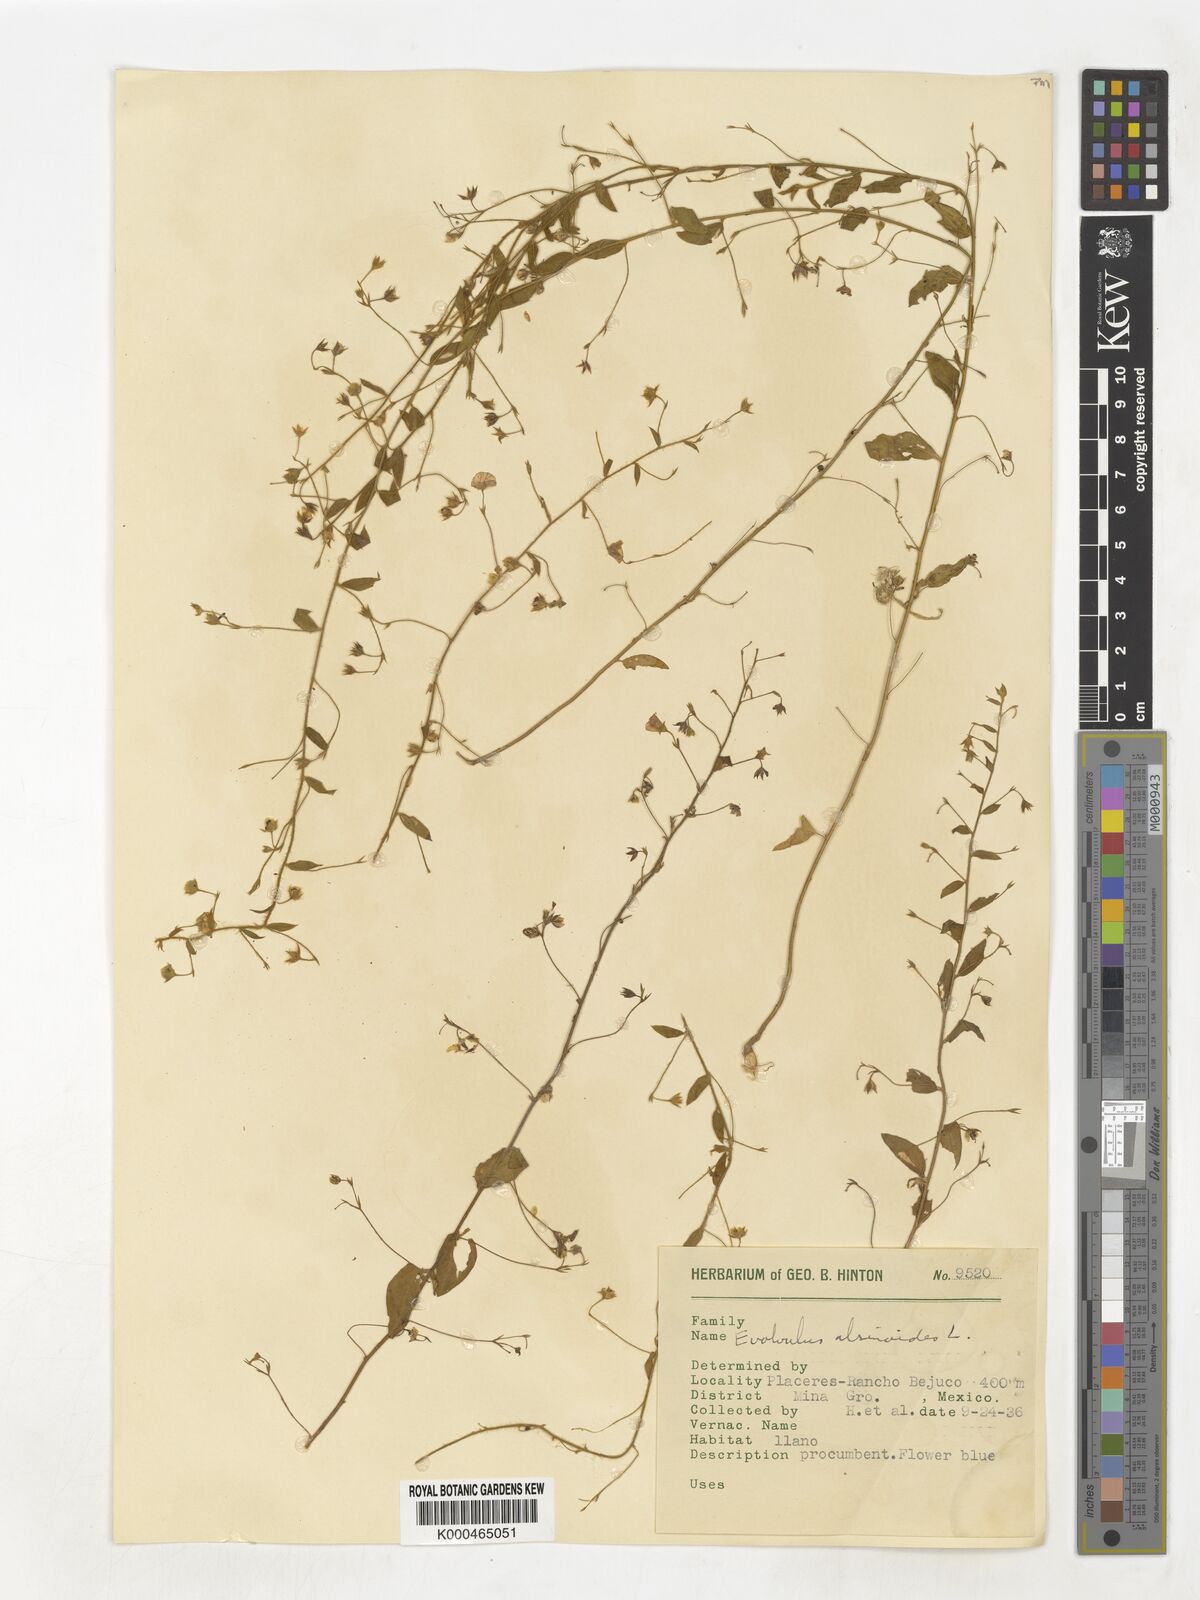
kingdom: Plantae
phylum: Tracheophyta
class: Magnoliopsida
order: Solanales
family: Convolvulaceae
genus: Evolvulus
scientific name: Evolvulus alsinoides
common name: Slender dwarf morning-glory
